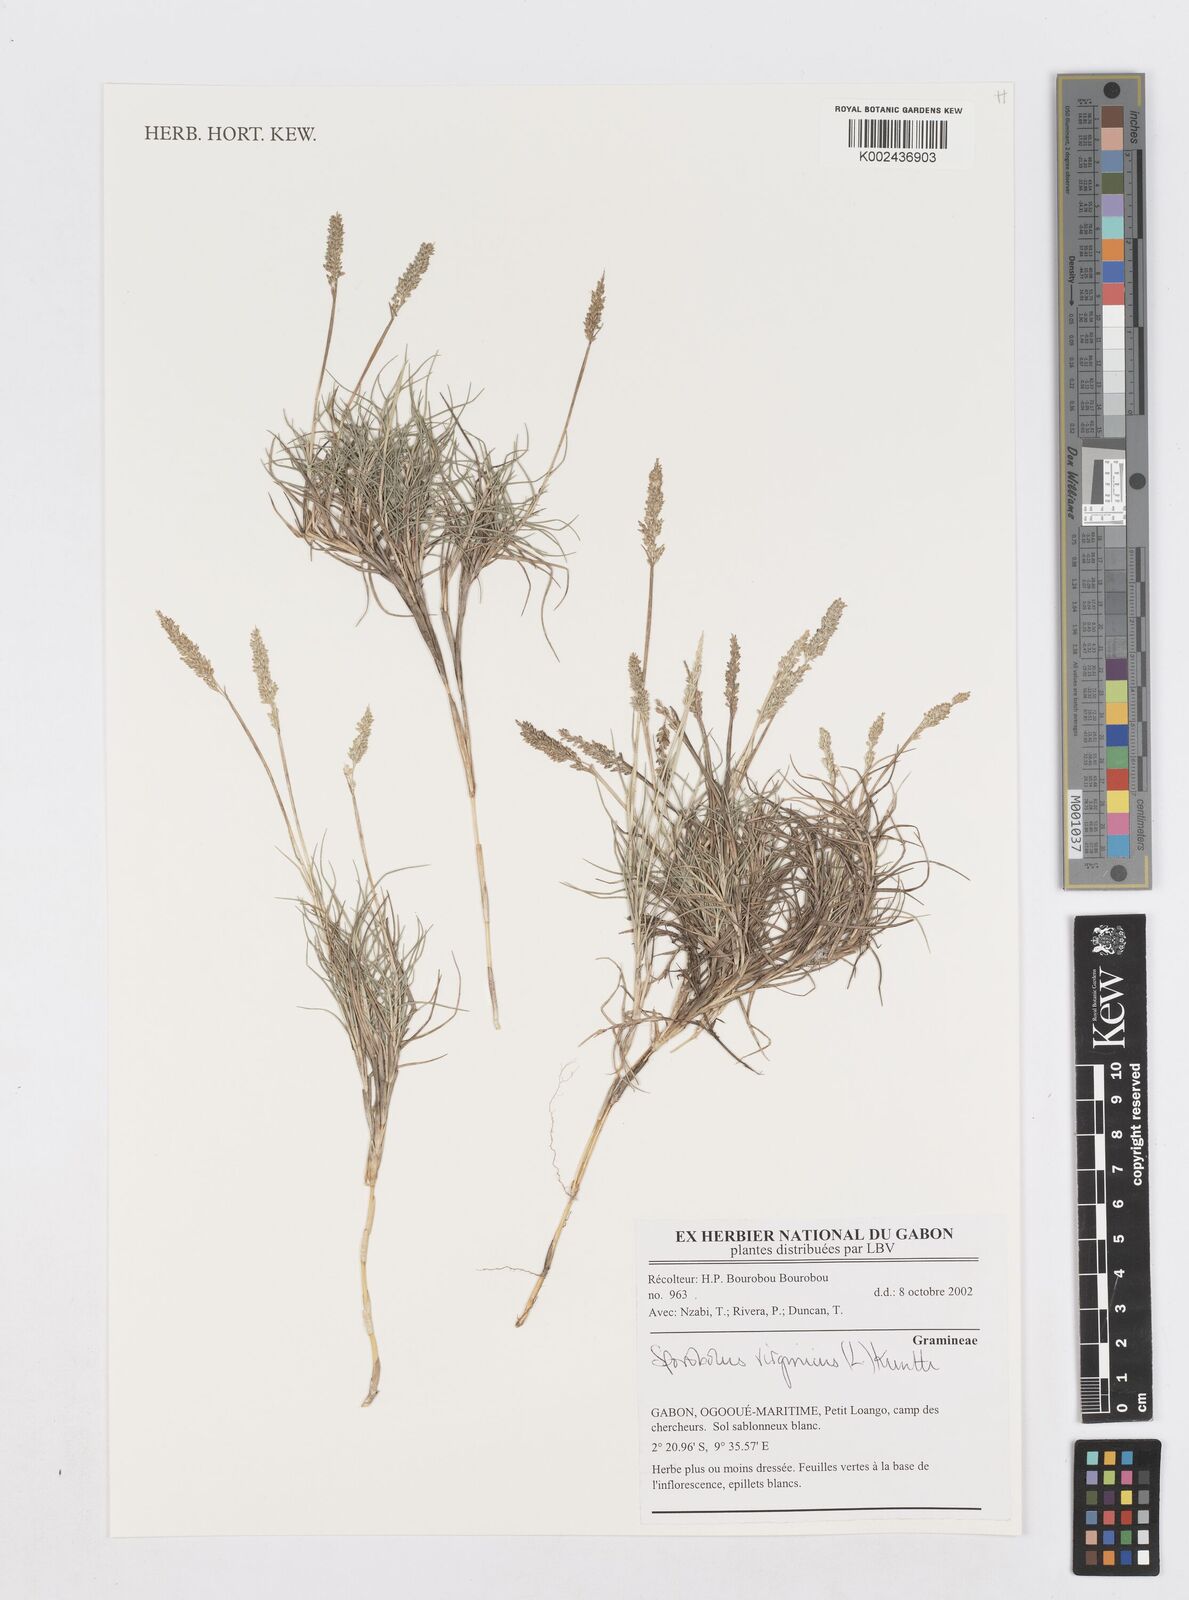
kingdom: Plantae
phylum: Tracheophyta
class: Liliopsida
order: Poales
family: Poaceae
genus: Sporobolus
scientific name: Sporobolus virginicus
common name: Beach dropseed
